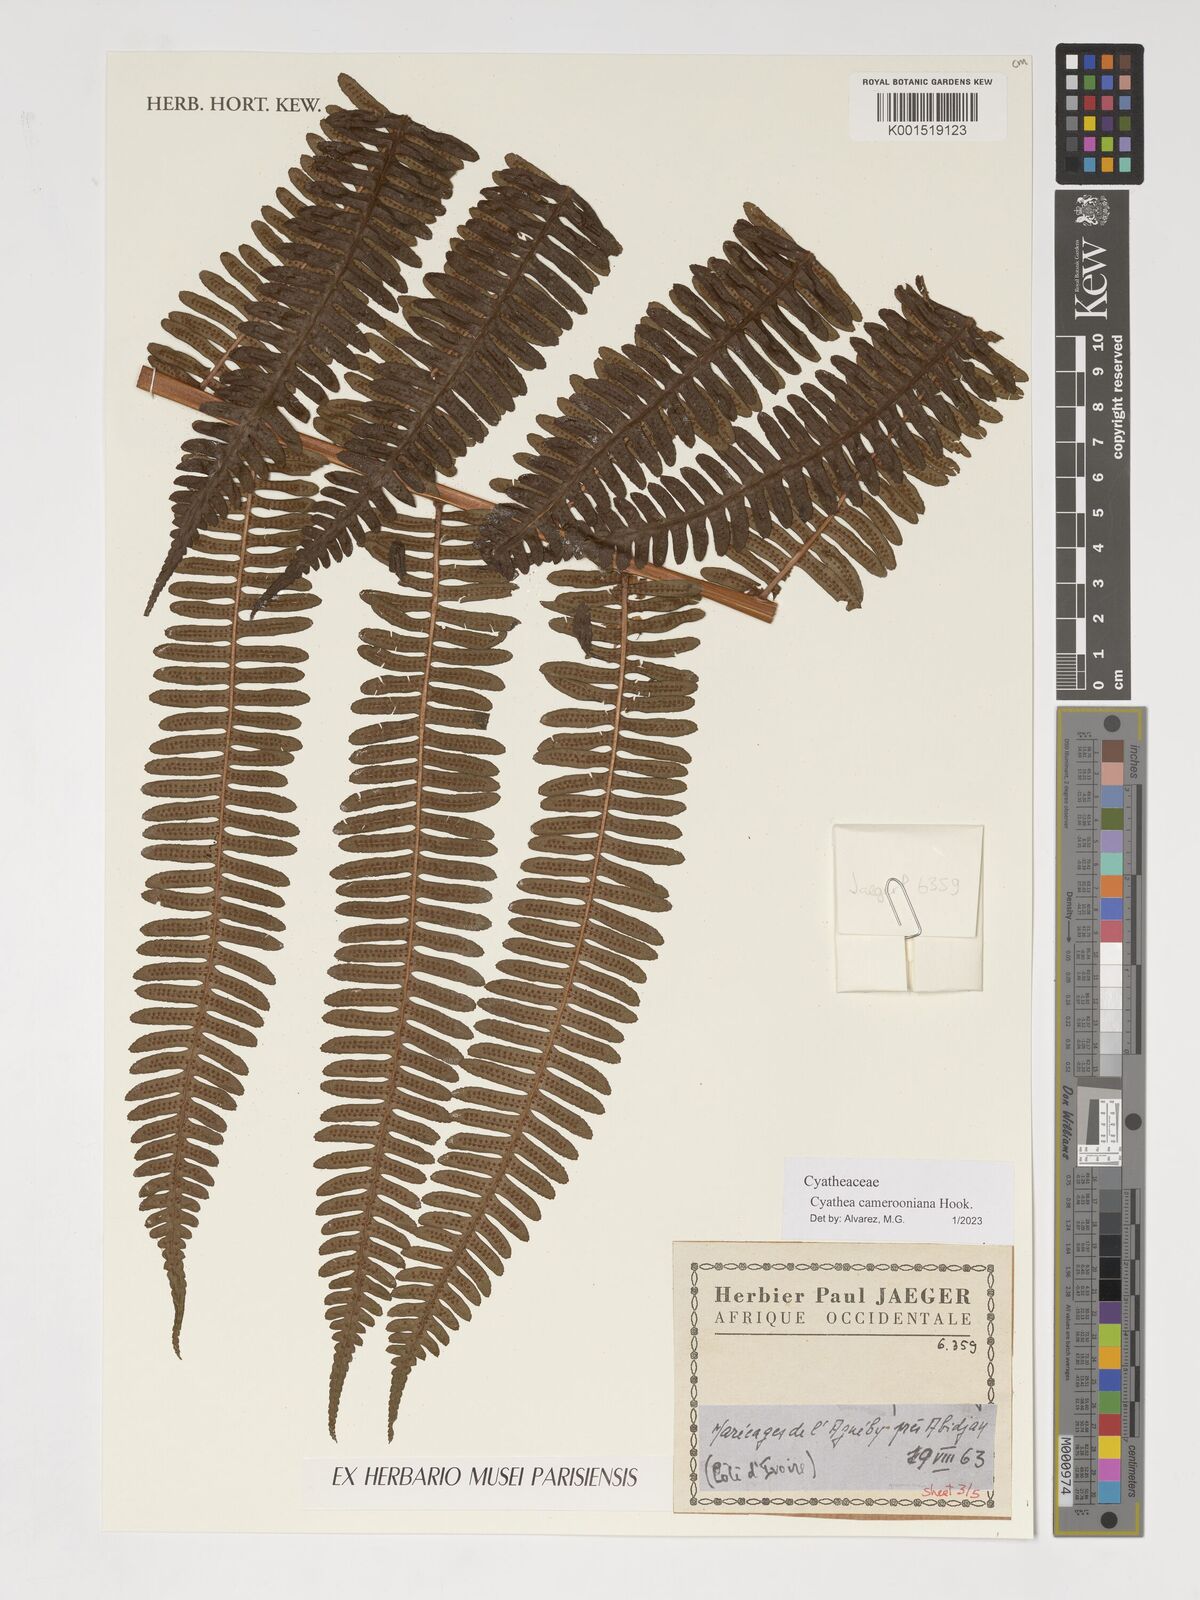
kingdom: Plantae
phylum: Tracheophyta
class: Polypodiopsida
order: Cyatheales
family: Cyatheaceae
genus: Alsophila
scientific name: Alsophila camerooniana
